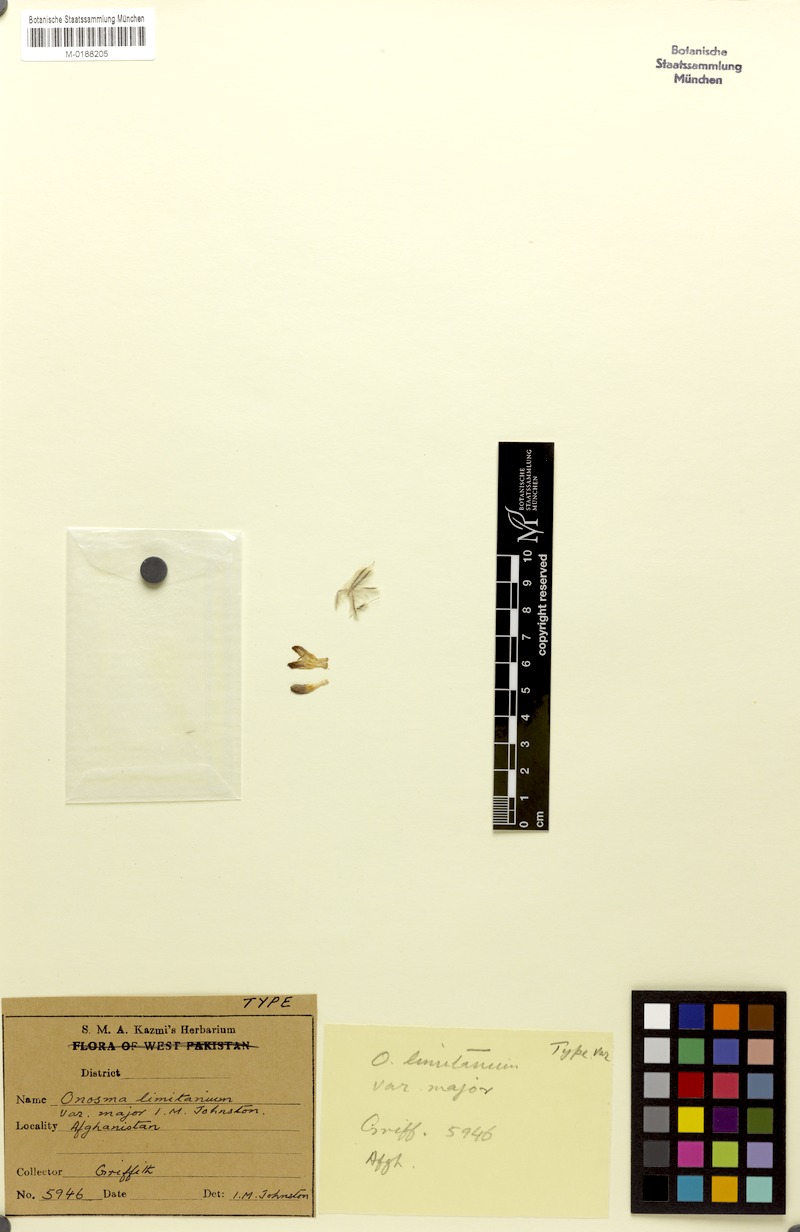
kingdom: Plantae
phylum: Tracheophyta
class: Magnoliopsida
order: Boraginales
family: Boraginaceae
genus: Onosma
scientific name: Onosma hispida
